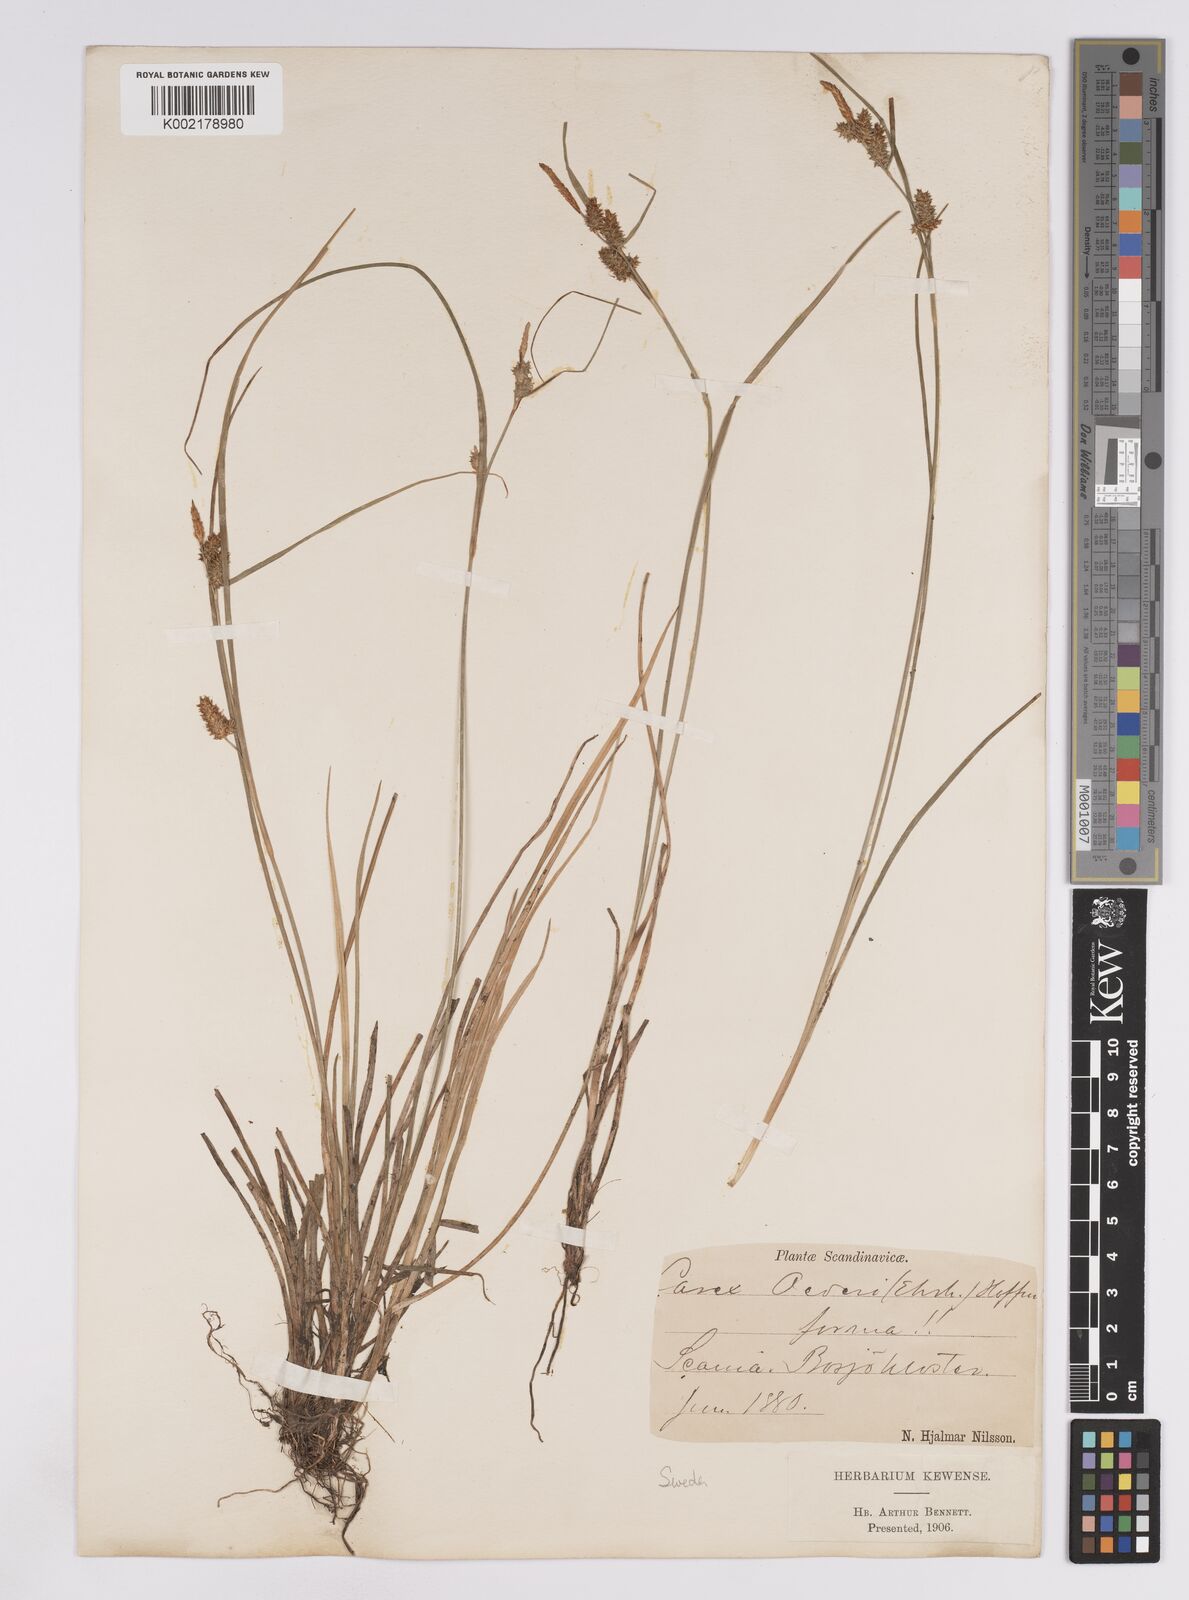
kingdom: Plantae
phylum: Tracheophyta
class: Liliopsida
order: Poales
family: Cyperaceae
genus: Carex
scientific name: Carex lepidocarpa
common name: Long-stalked yellow-sedge
